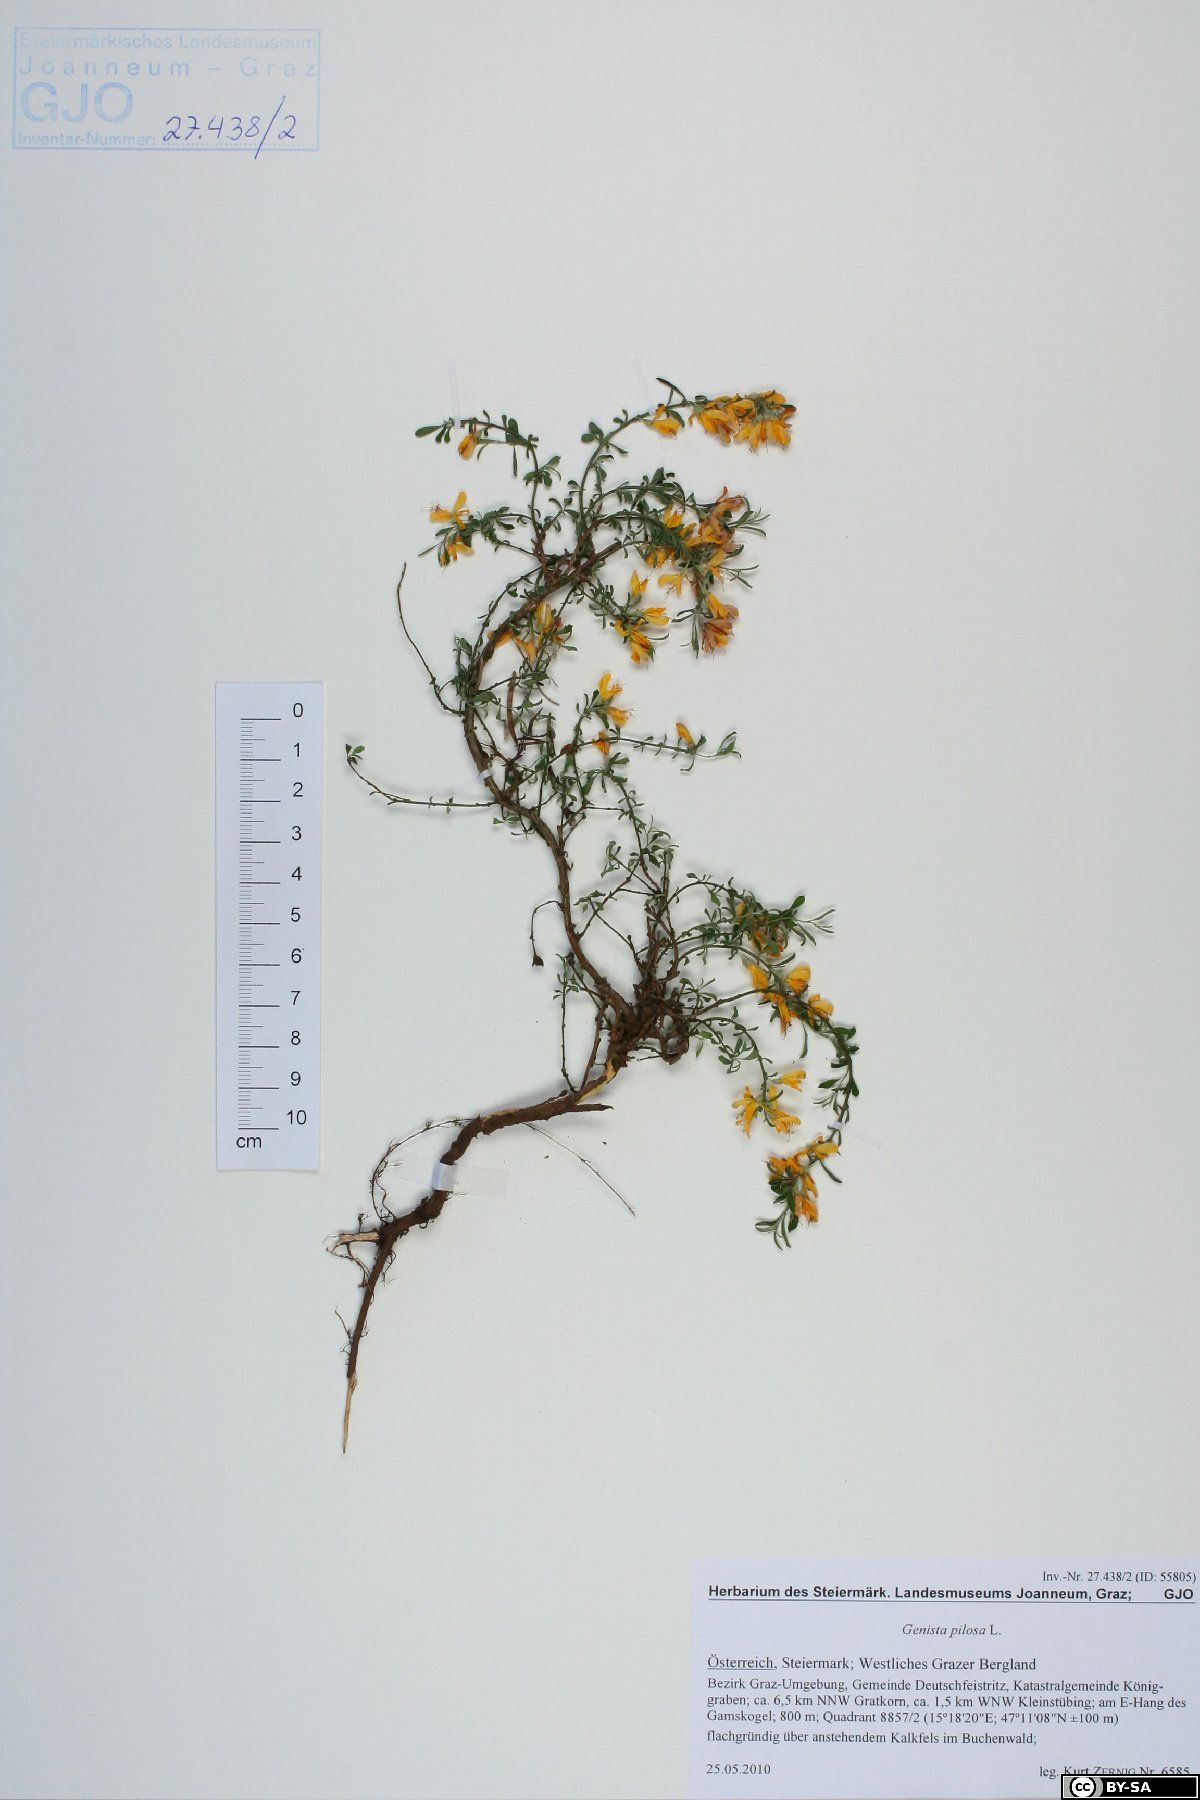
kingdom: Plantae
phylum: Tracheophyta
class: Magnoliopsida
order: Fabales
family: Fabaceae
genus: Genista
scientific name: Genista pilosa
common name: Hairy greenweed
